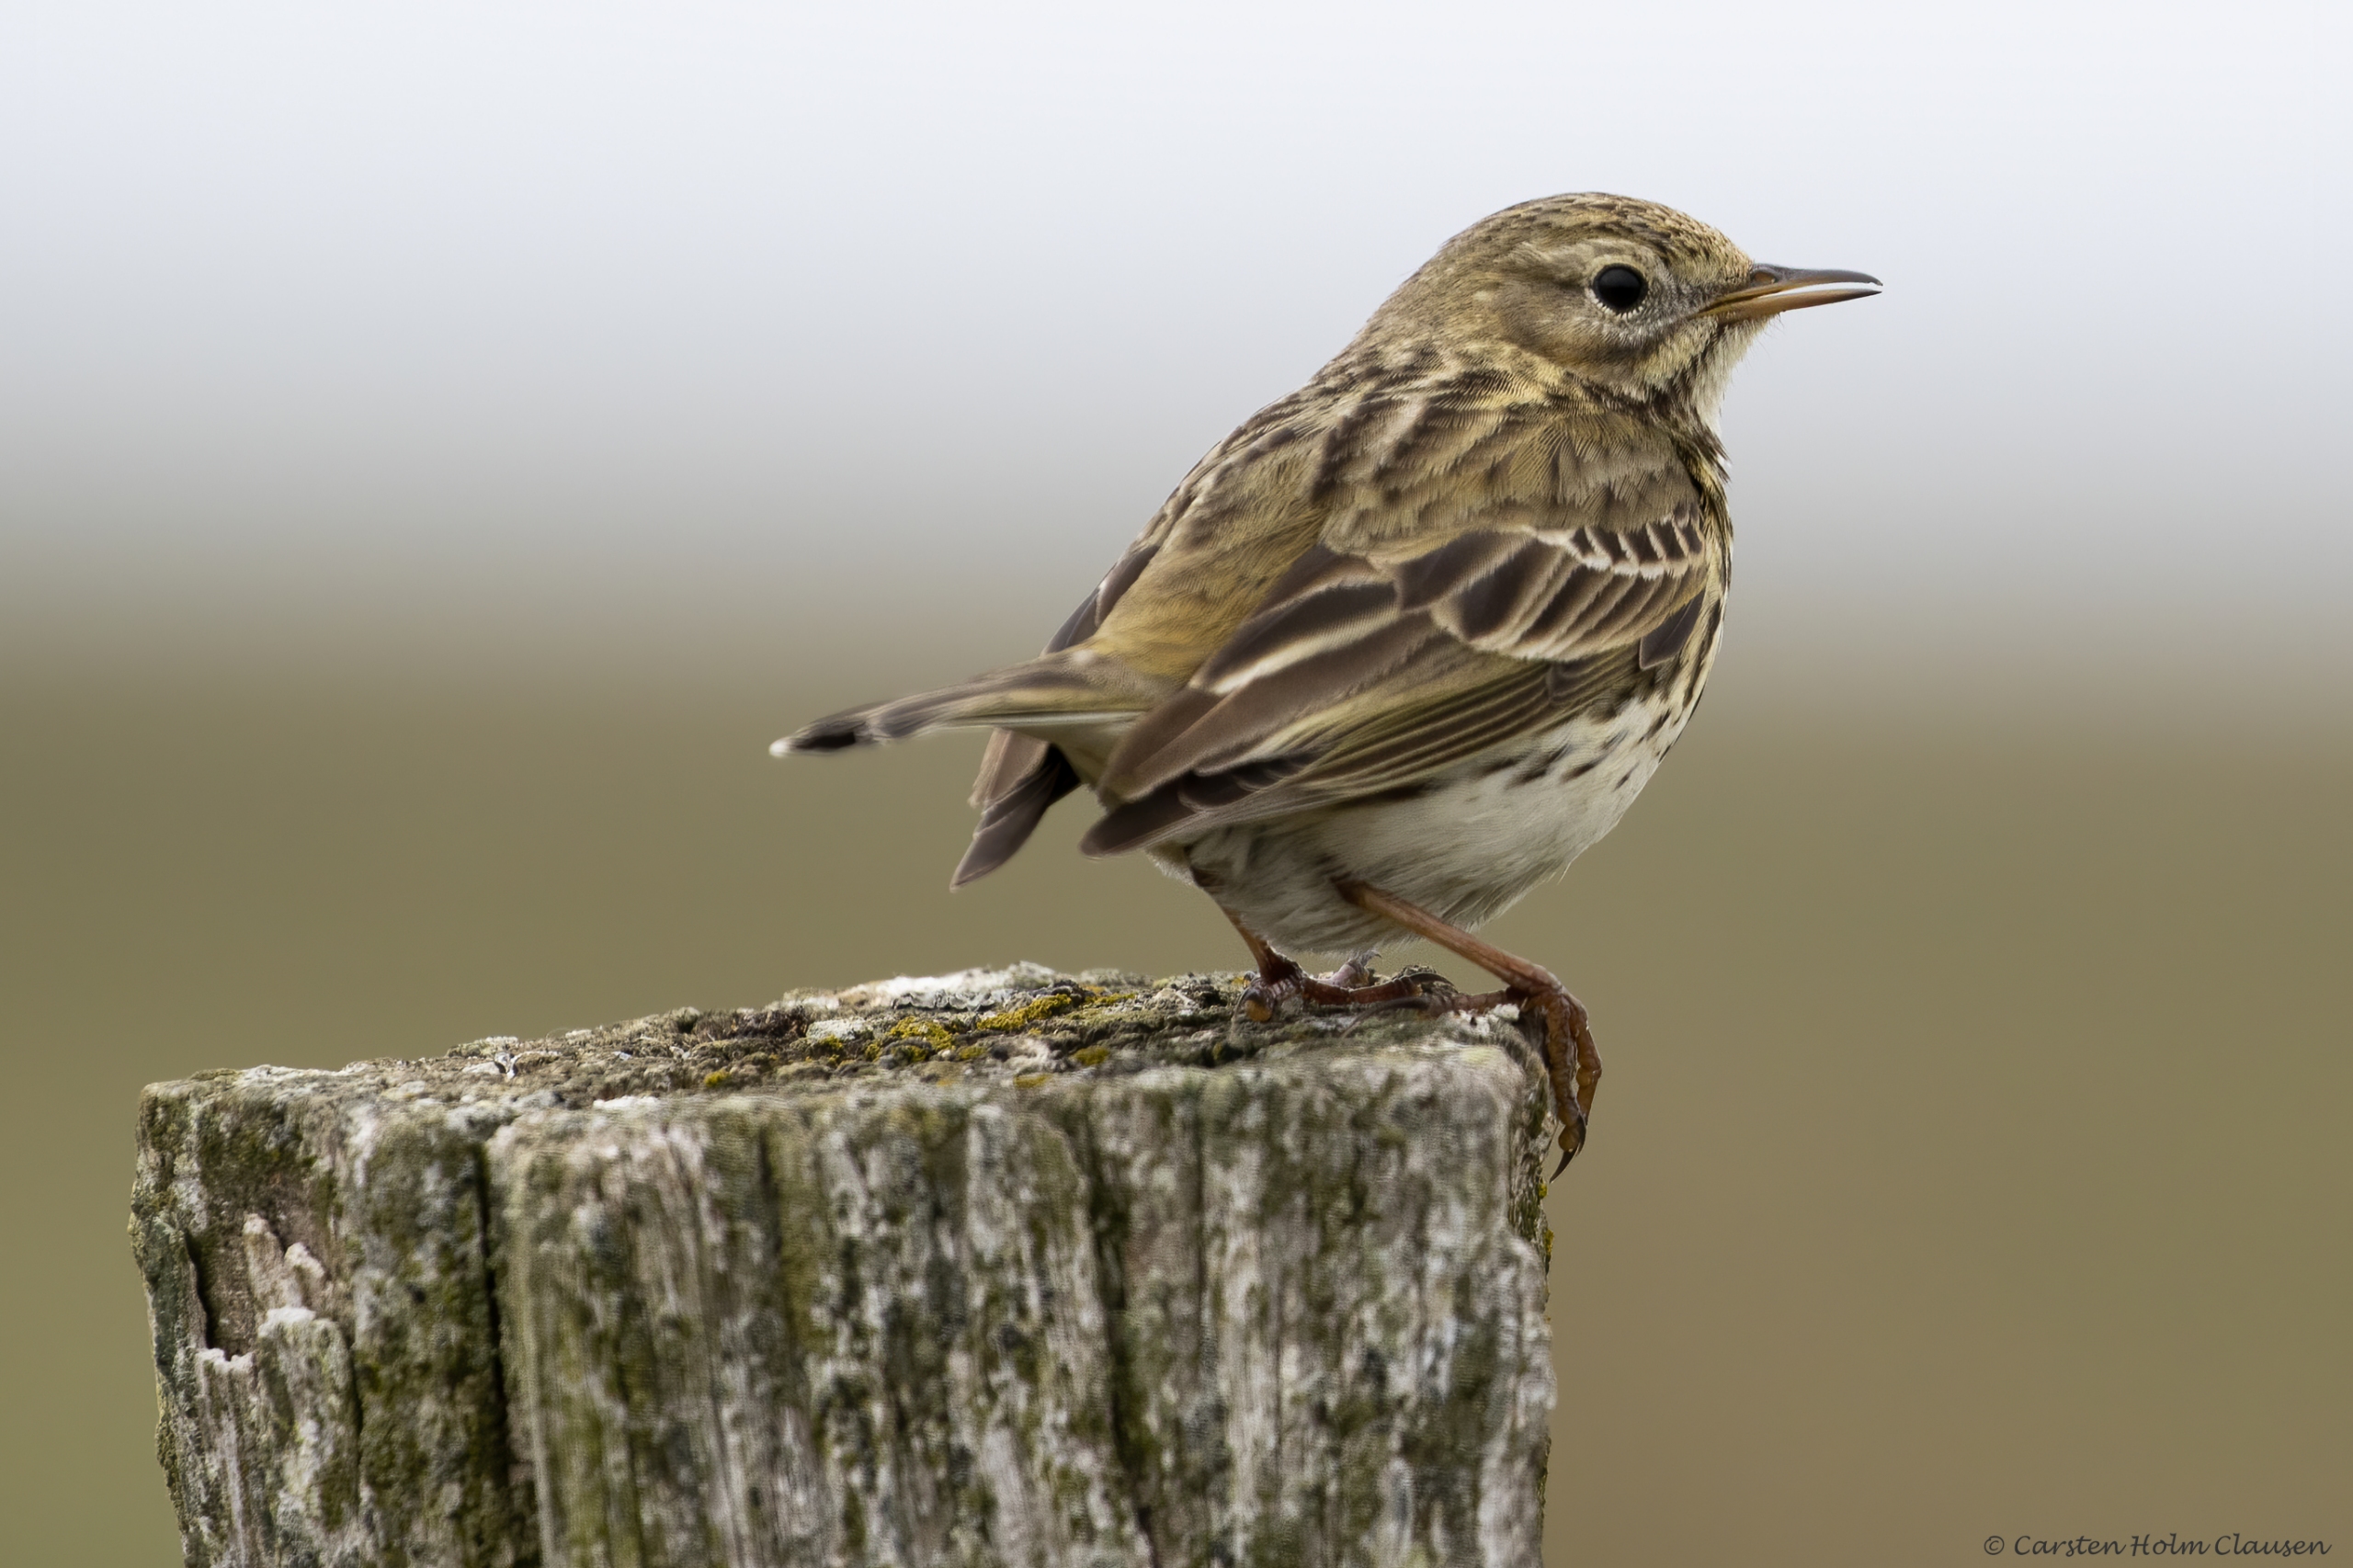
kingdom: Animalia
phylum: Chordata
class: Aves
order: Passeriformes
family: Motacillidae
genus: Anthus
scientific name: Anthus pratensis
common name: Engpiber
